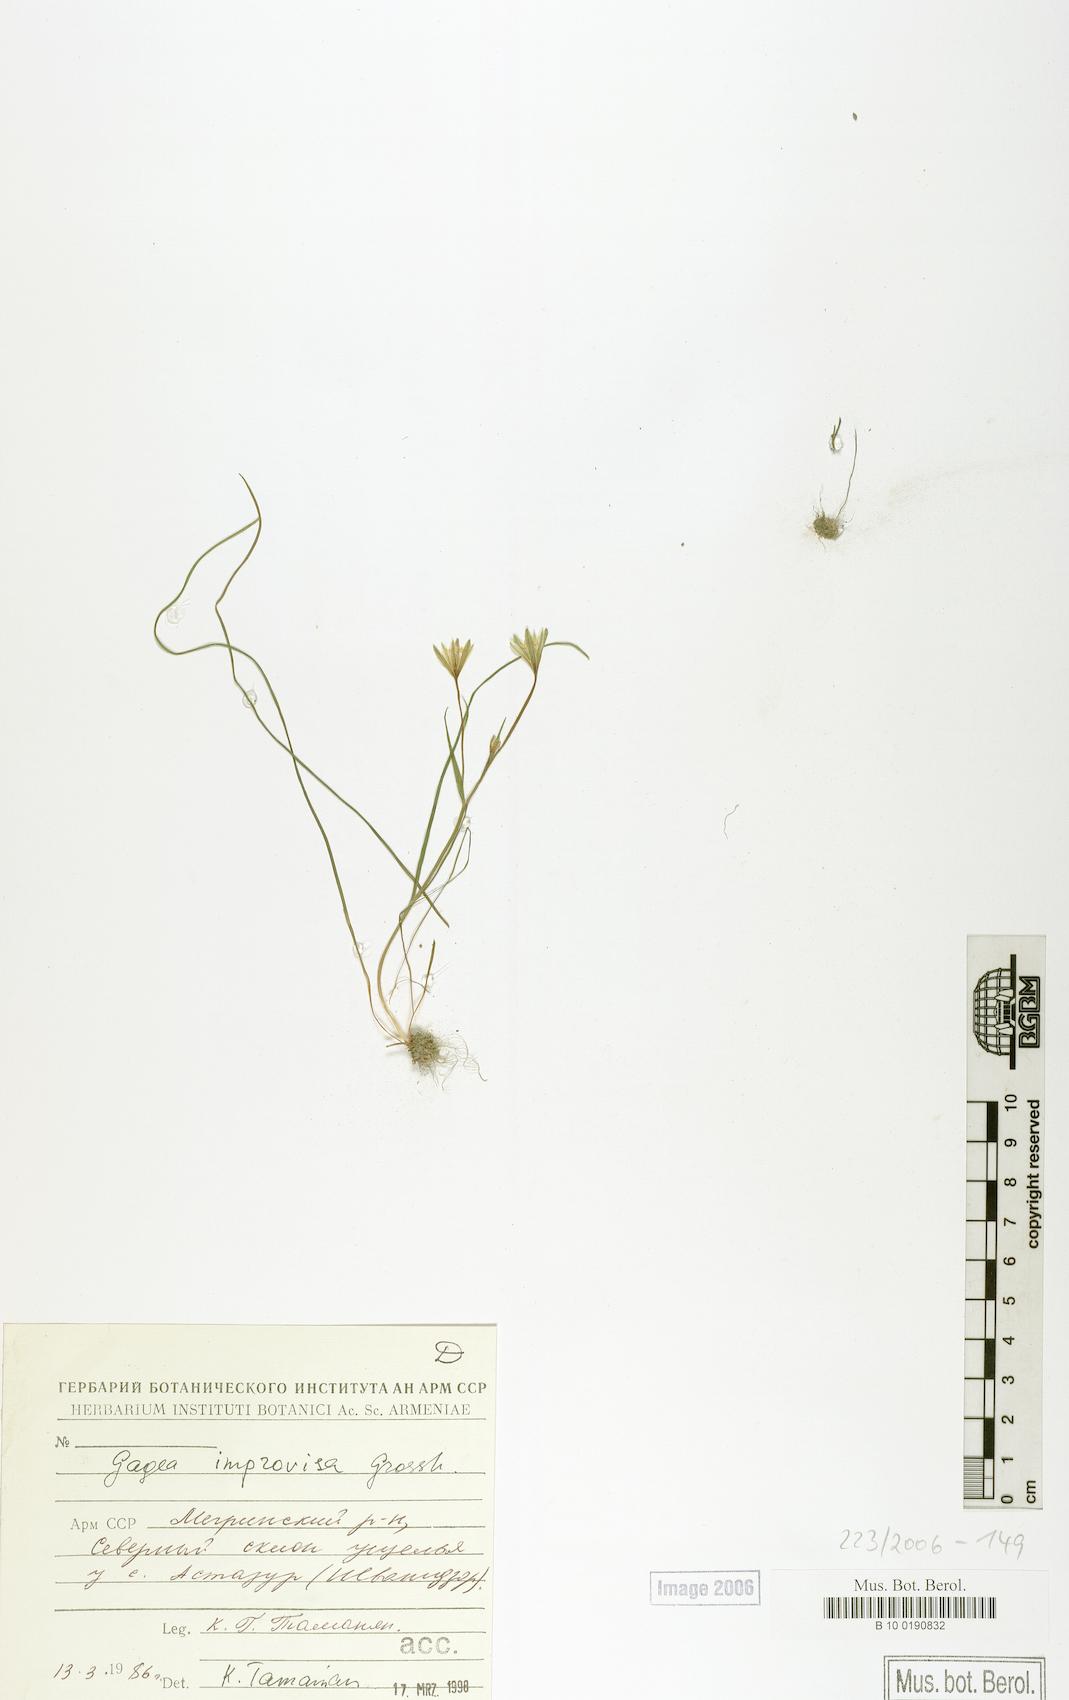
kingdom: Plantae
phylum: Tracheophyta
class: Liliopsida
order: Liliales
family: Liliaceae
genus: Gagea
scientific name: Gagea chomutovae
